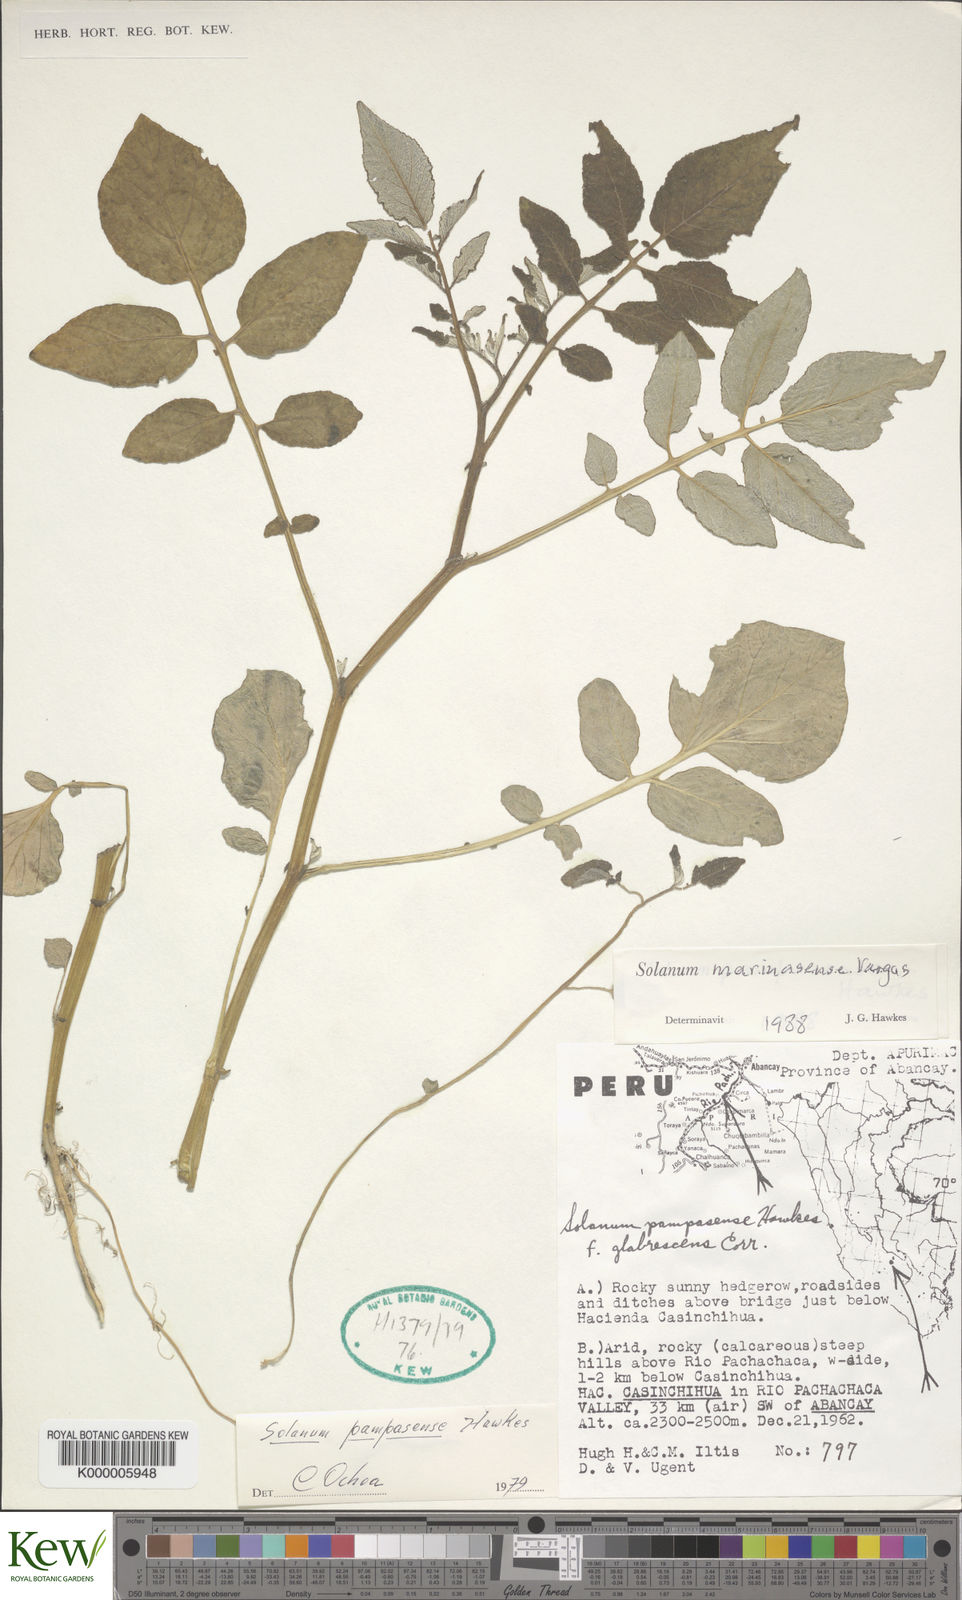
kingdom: Plantae
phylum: Tracheophyta
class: Magnoliopsida
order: Solanales
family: Solanaceae
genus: Solanum
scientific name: Solanum candolleanum
